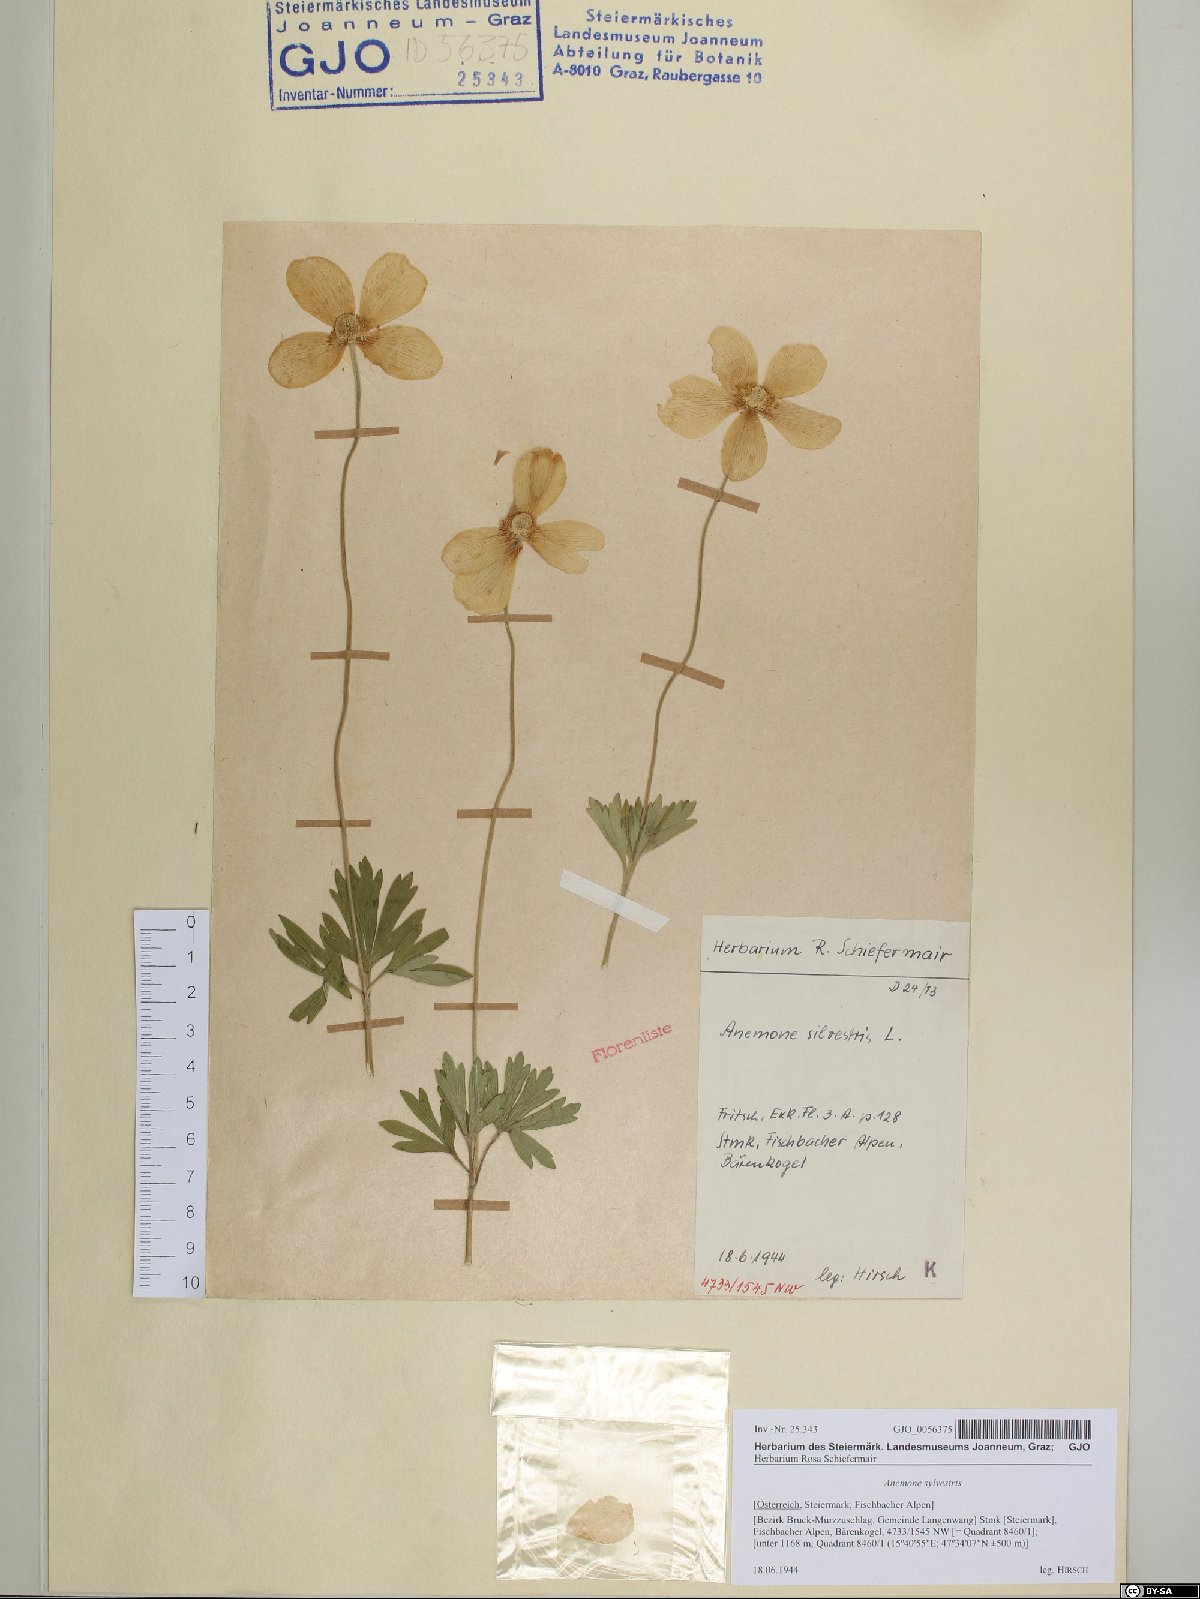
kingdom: Plantae
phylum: Tracheophyta
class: Magnoliopsida
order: Ranunculales
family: Ranunculaceae
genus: Anemone
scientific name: Anemone sylvestris
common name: Snowdrop anemone
